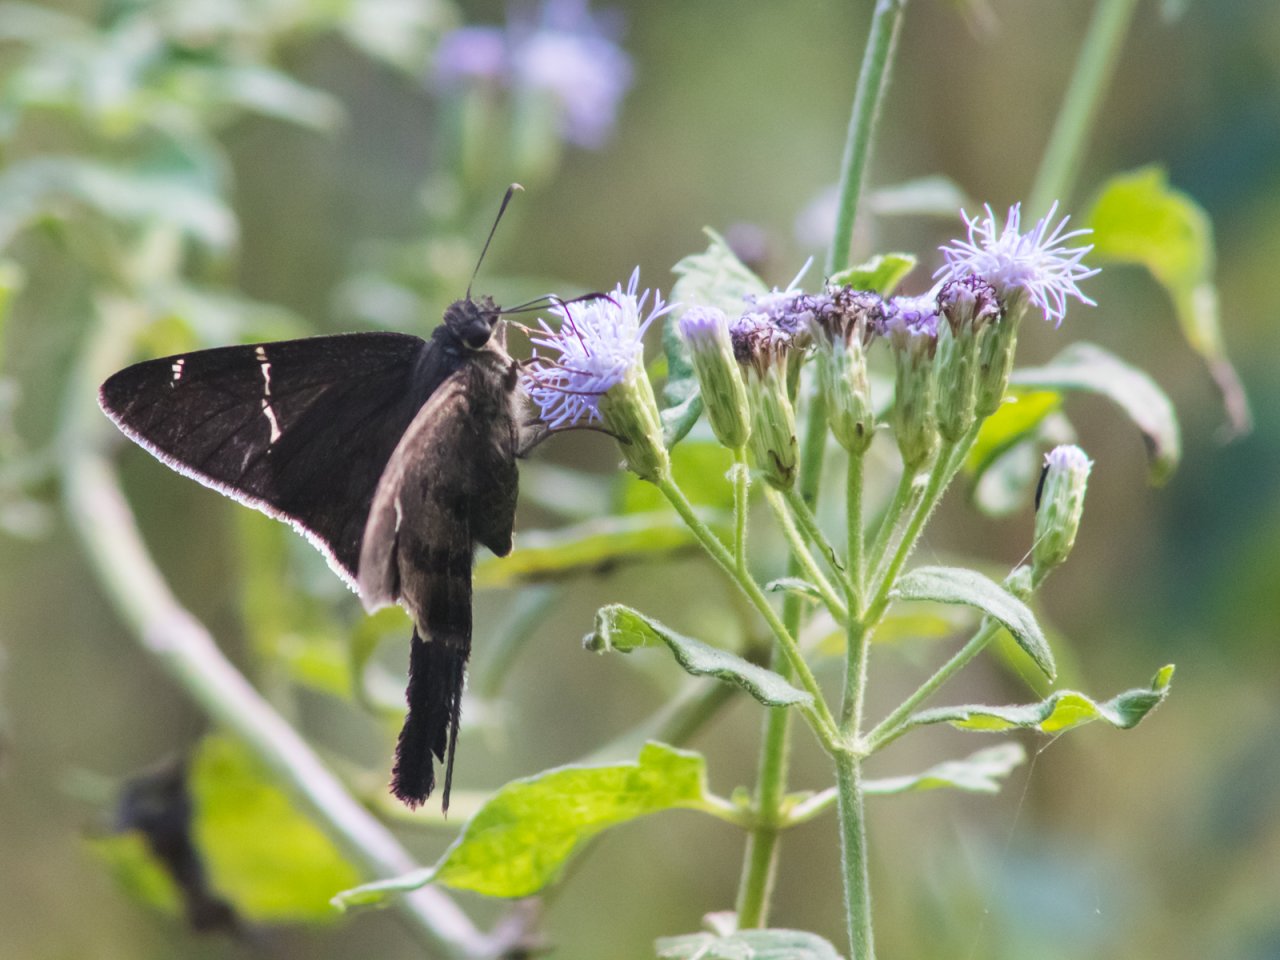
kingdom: Animalia
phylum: Arthropoda
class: Insecta
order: Lepidoptera
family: Hesperiidae
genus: Urbanus
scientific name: Urbanus procne
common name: Brown Longtail
